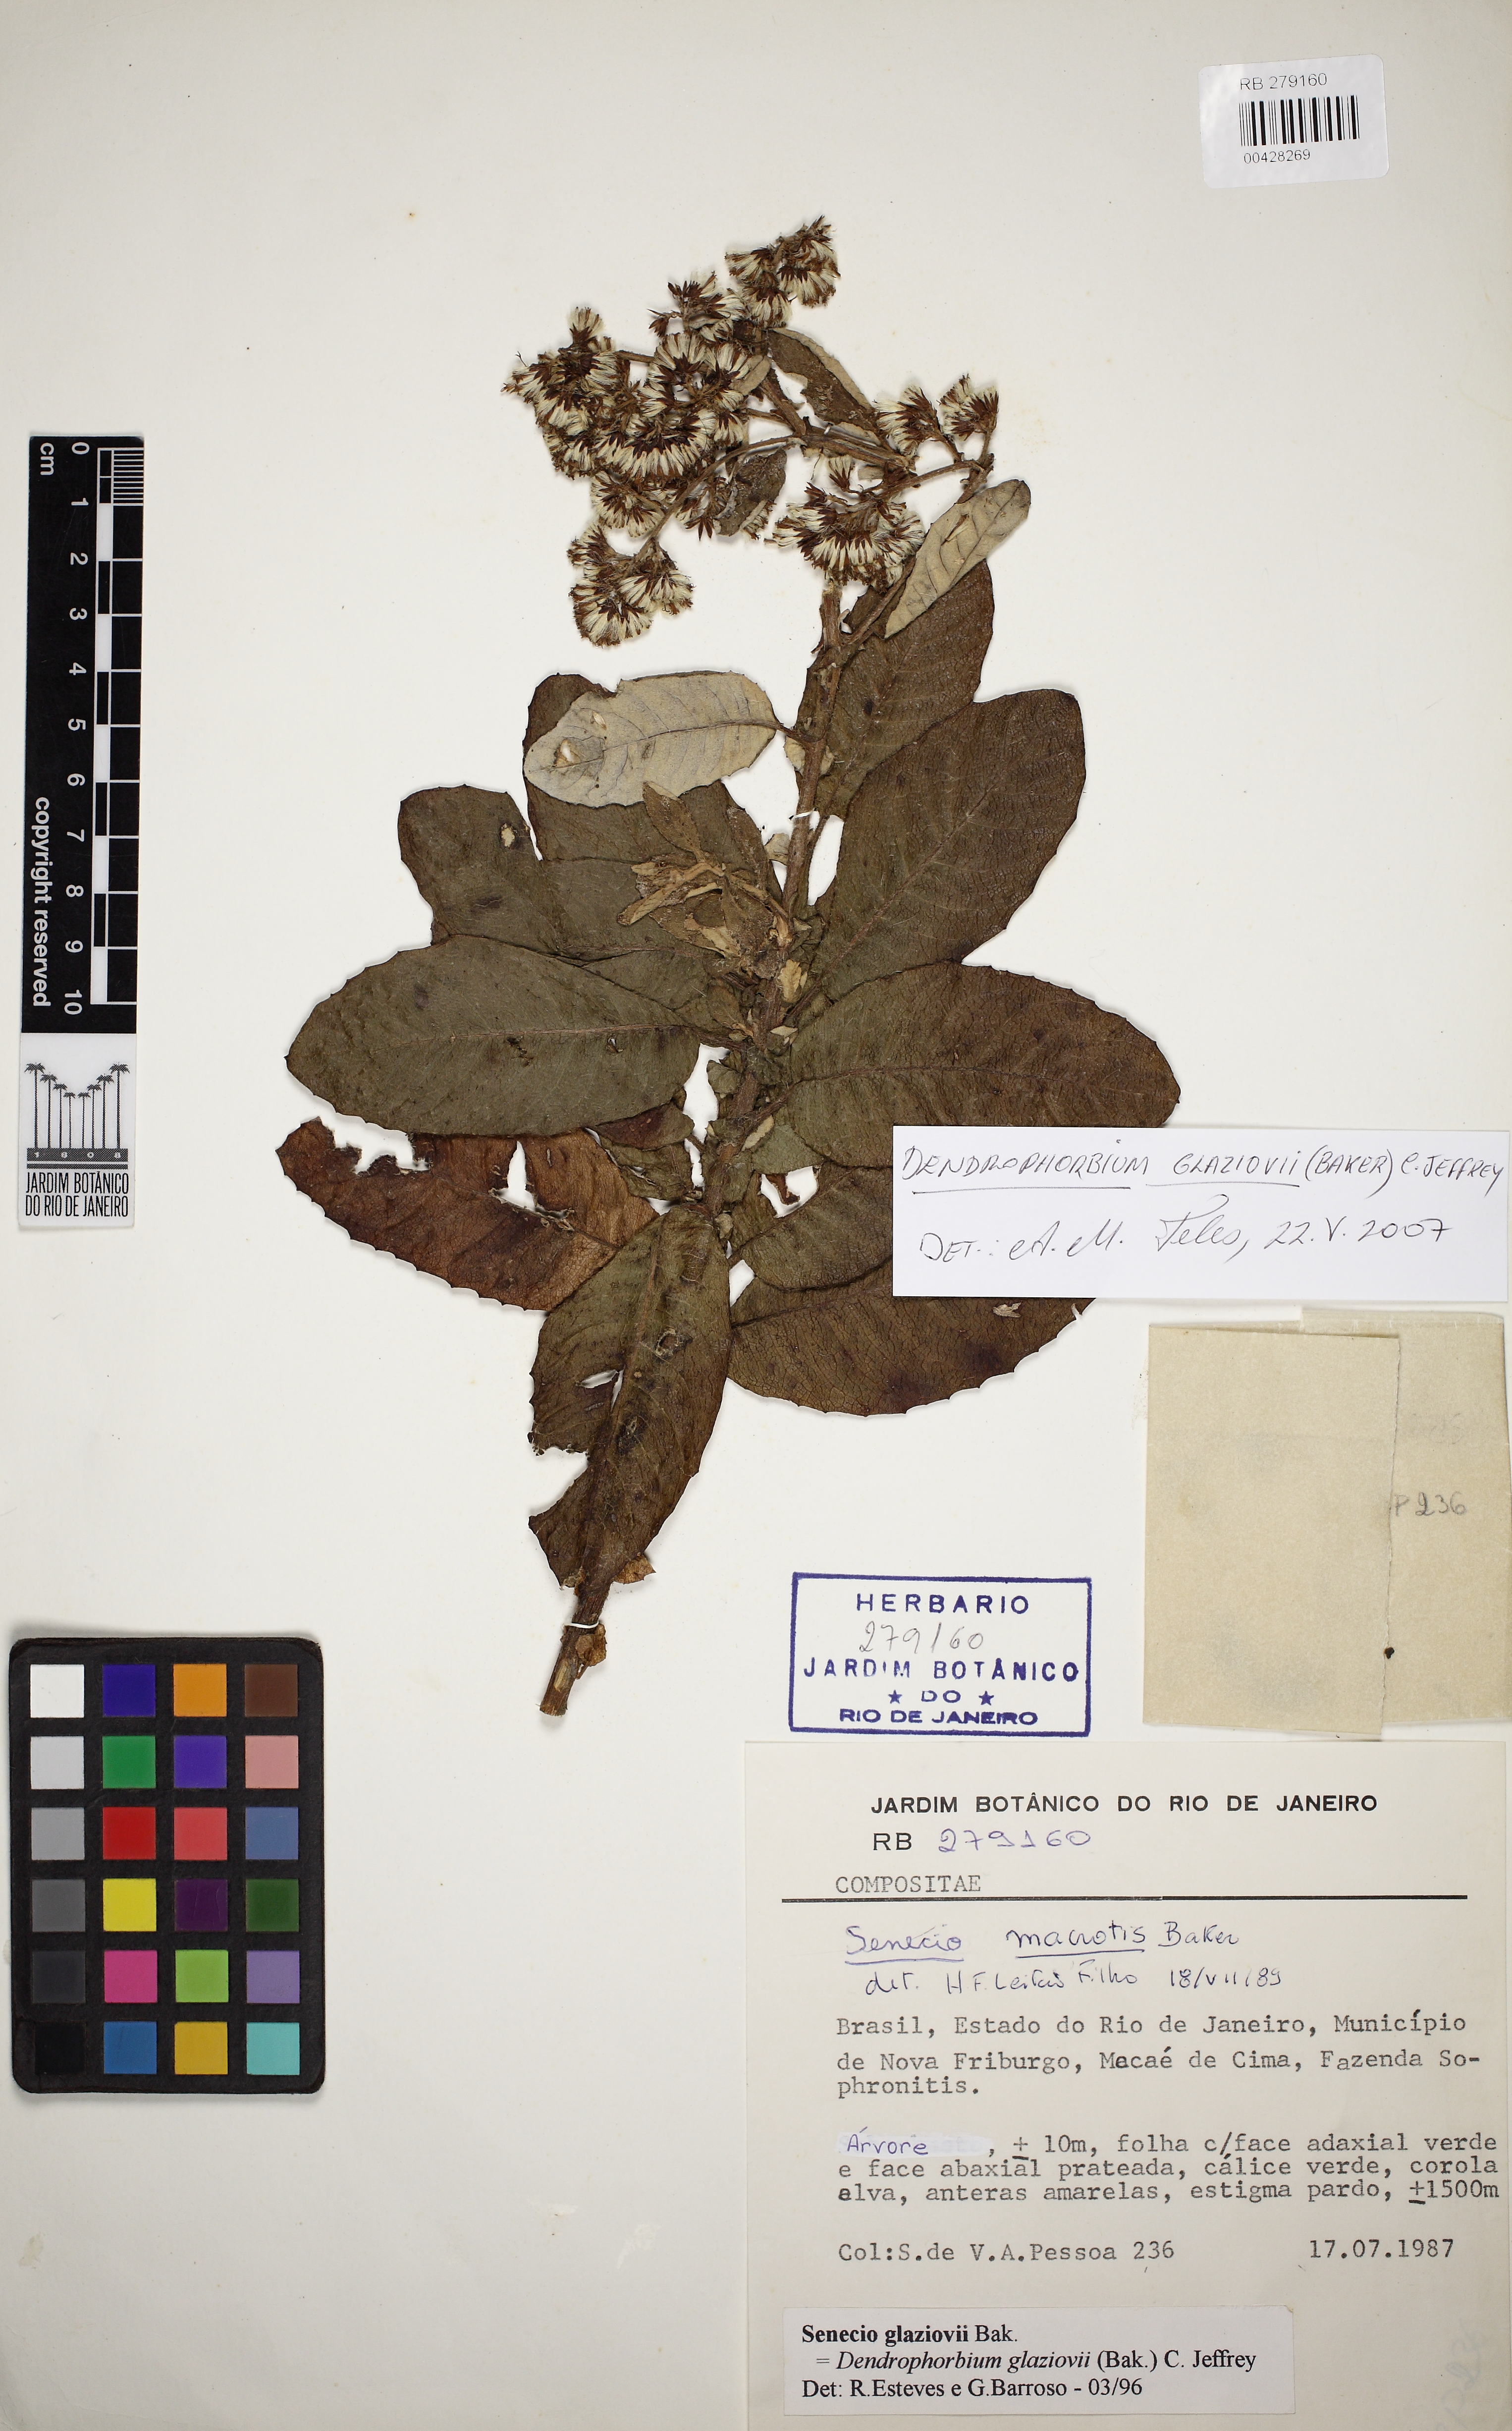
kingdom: Plantae
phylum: Tracheophyta
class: Magnoliopsida
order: Asterales
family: Asteraceae
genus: Dendrophorbium
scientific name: Dendrophorbium glaziovii
